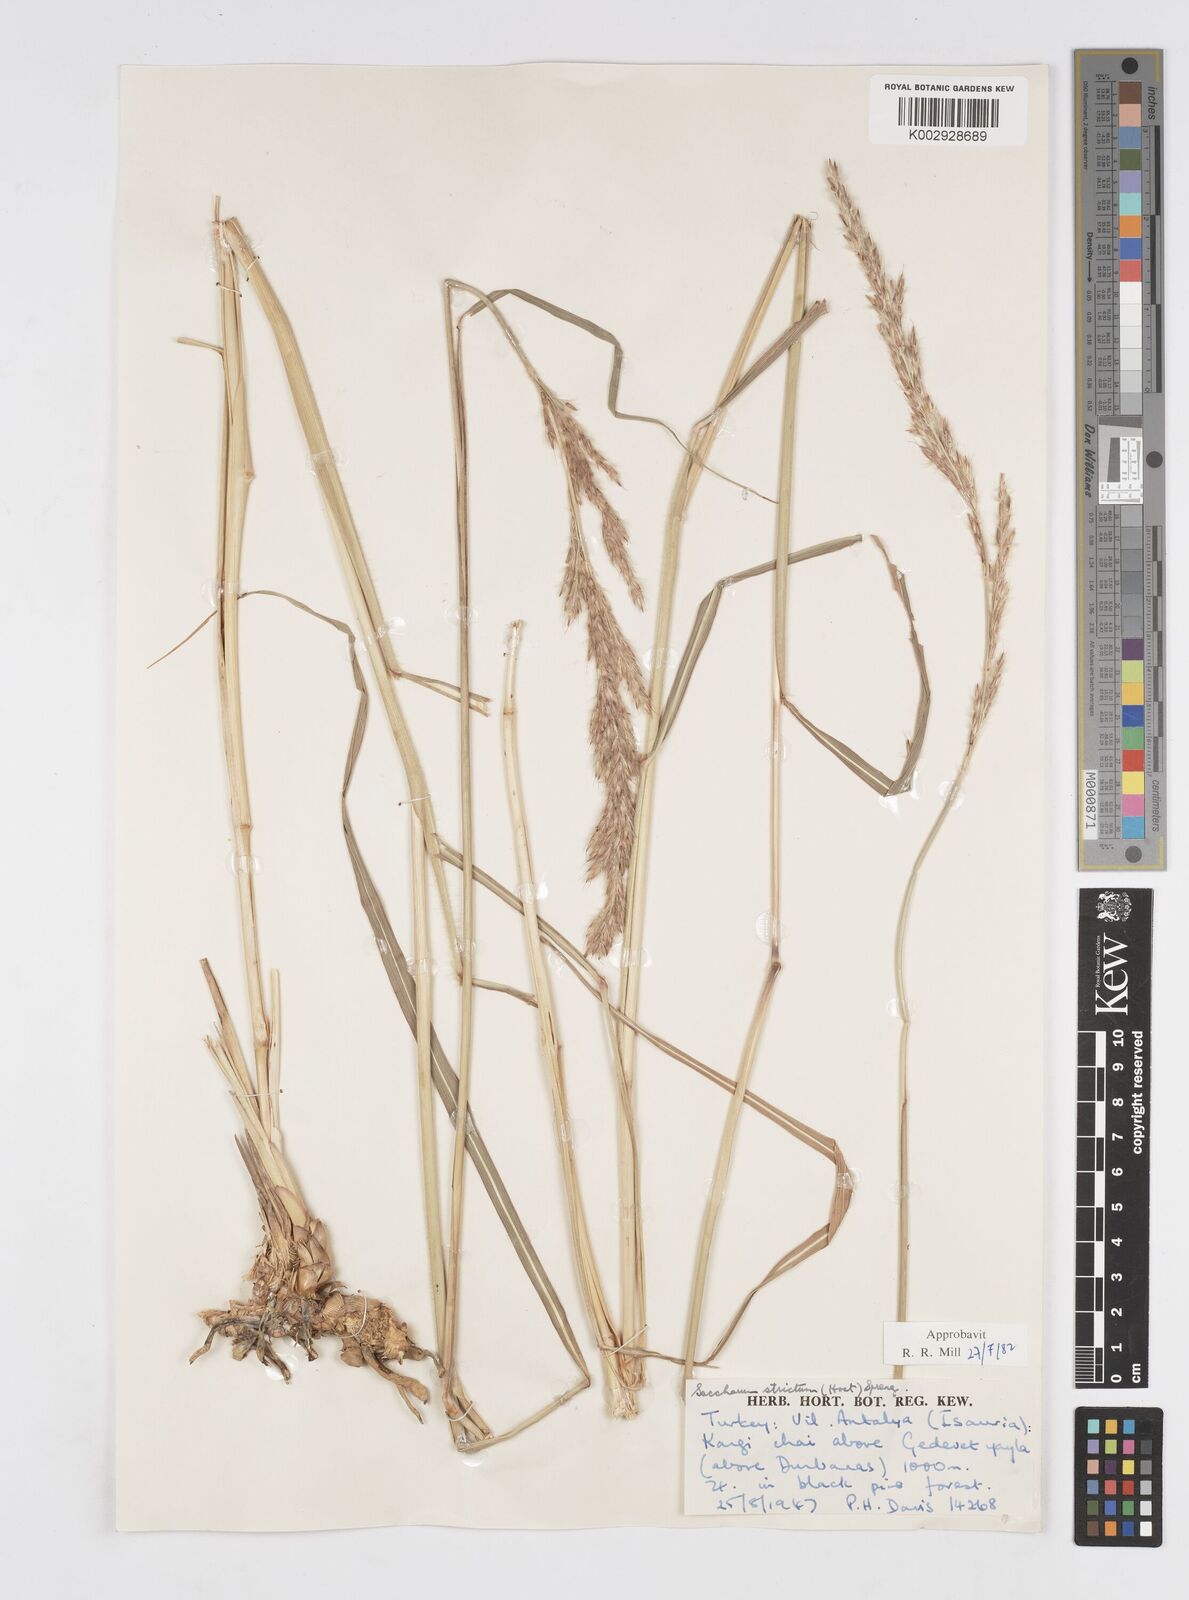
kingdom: Plantae
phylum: Tracheophyta
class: Liliopsida
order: Poales
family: Poaceae
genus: Tripidium
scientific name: Tripidium strictum
